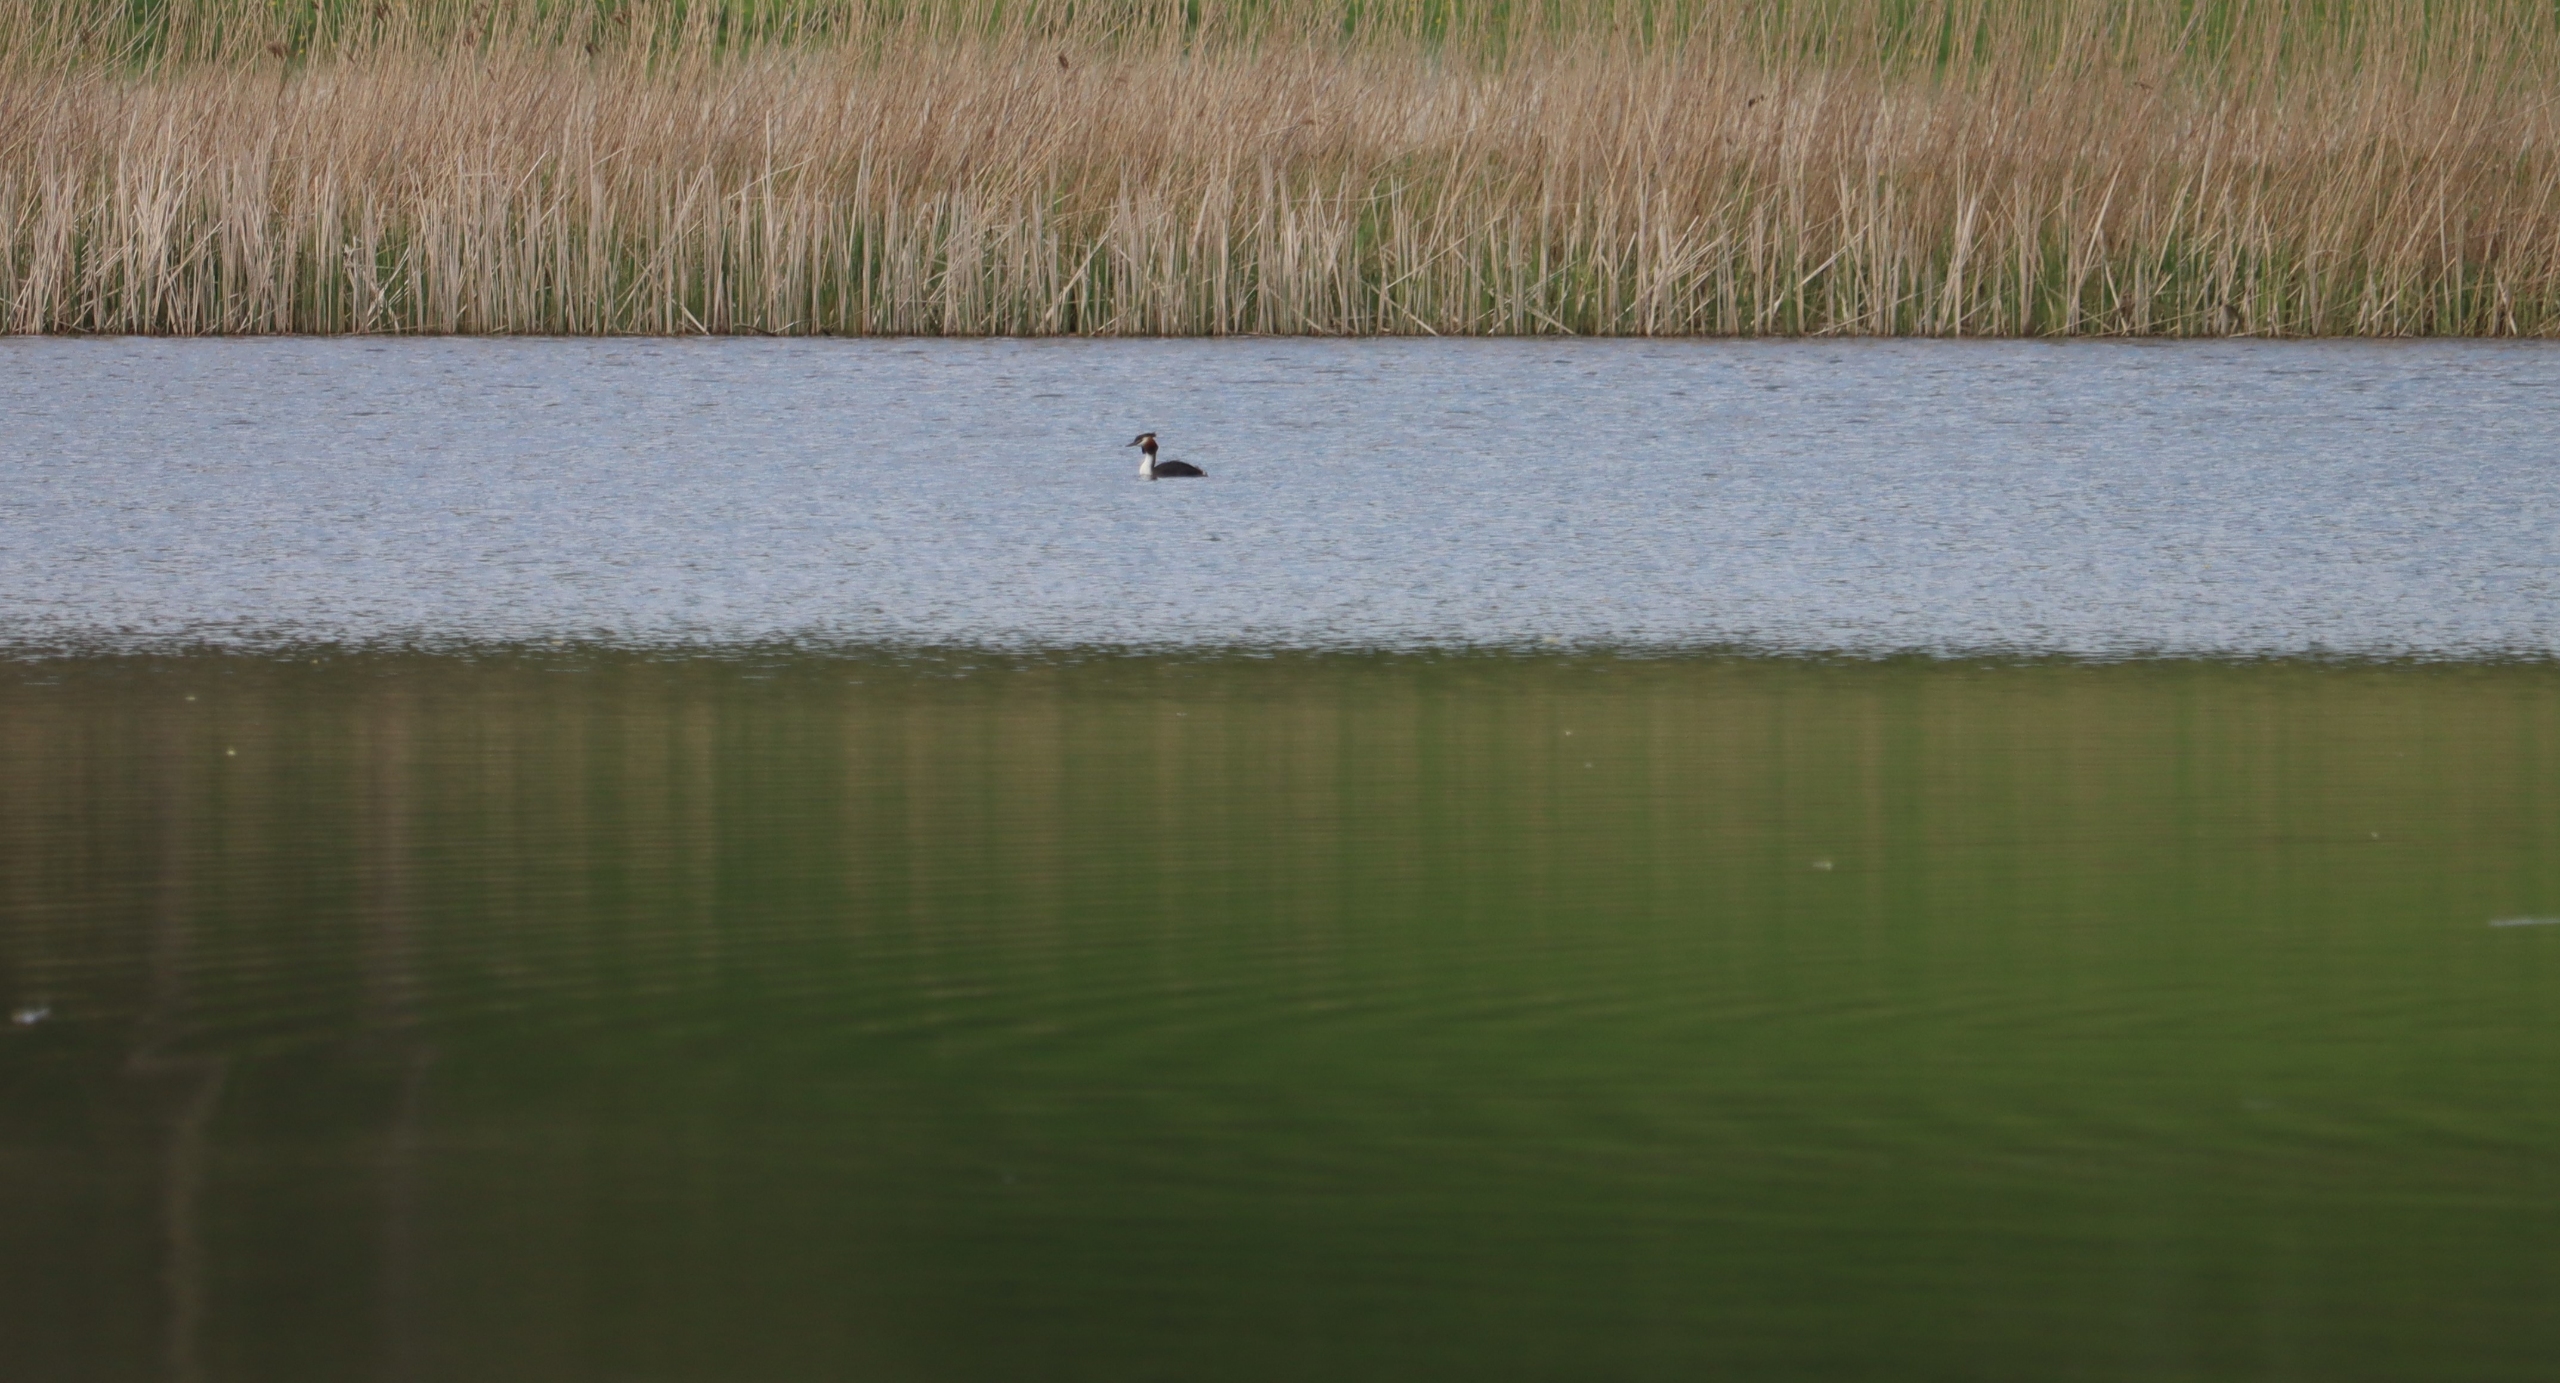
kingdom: Animalia
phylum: Chordata
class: Aves
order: Podicipediformes
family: Podicipedidae
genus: Podiceps
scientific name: Podiceps cristatus
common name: Toppet lappedykker
